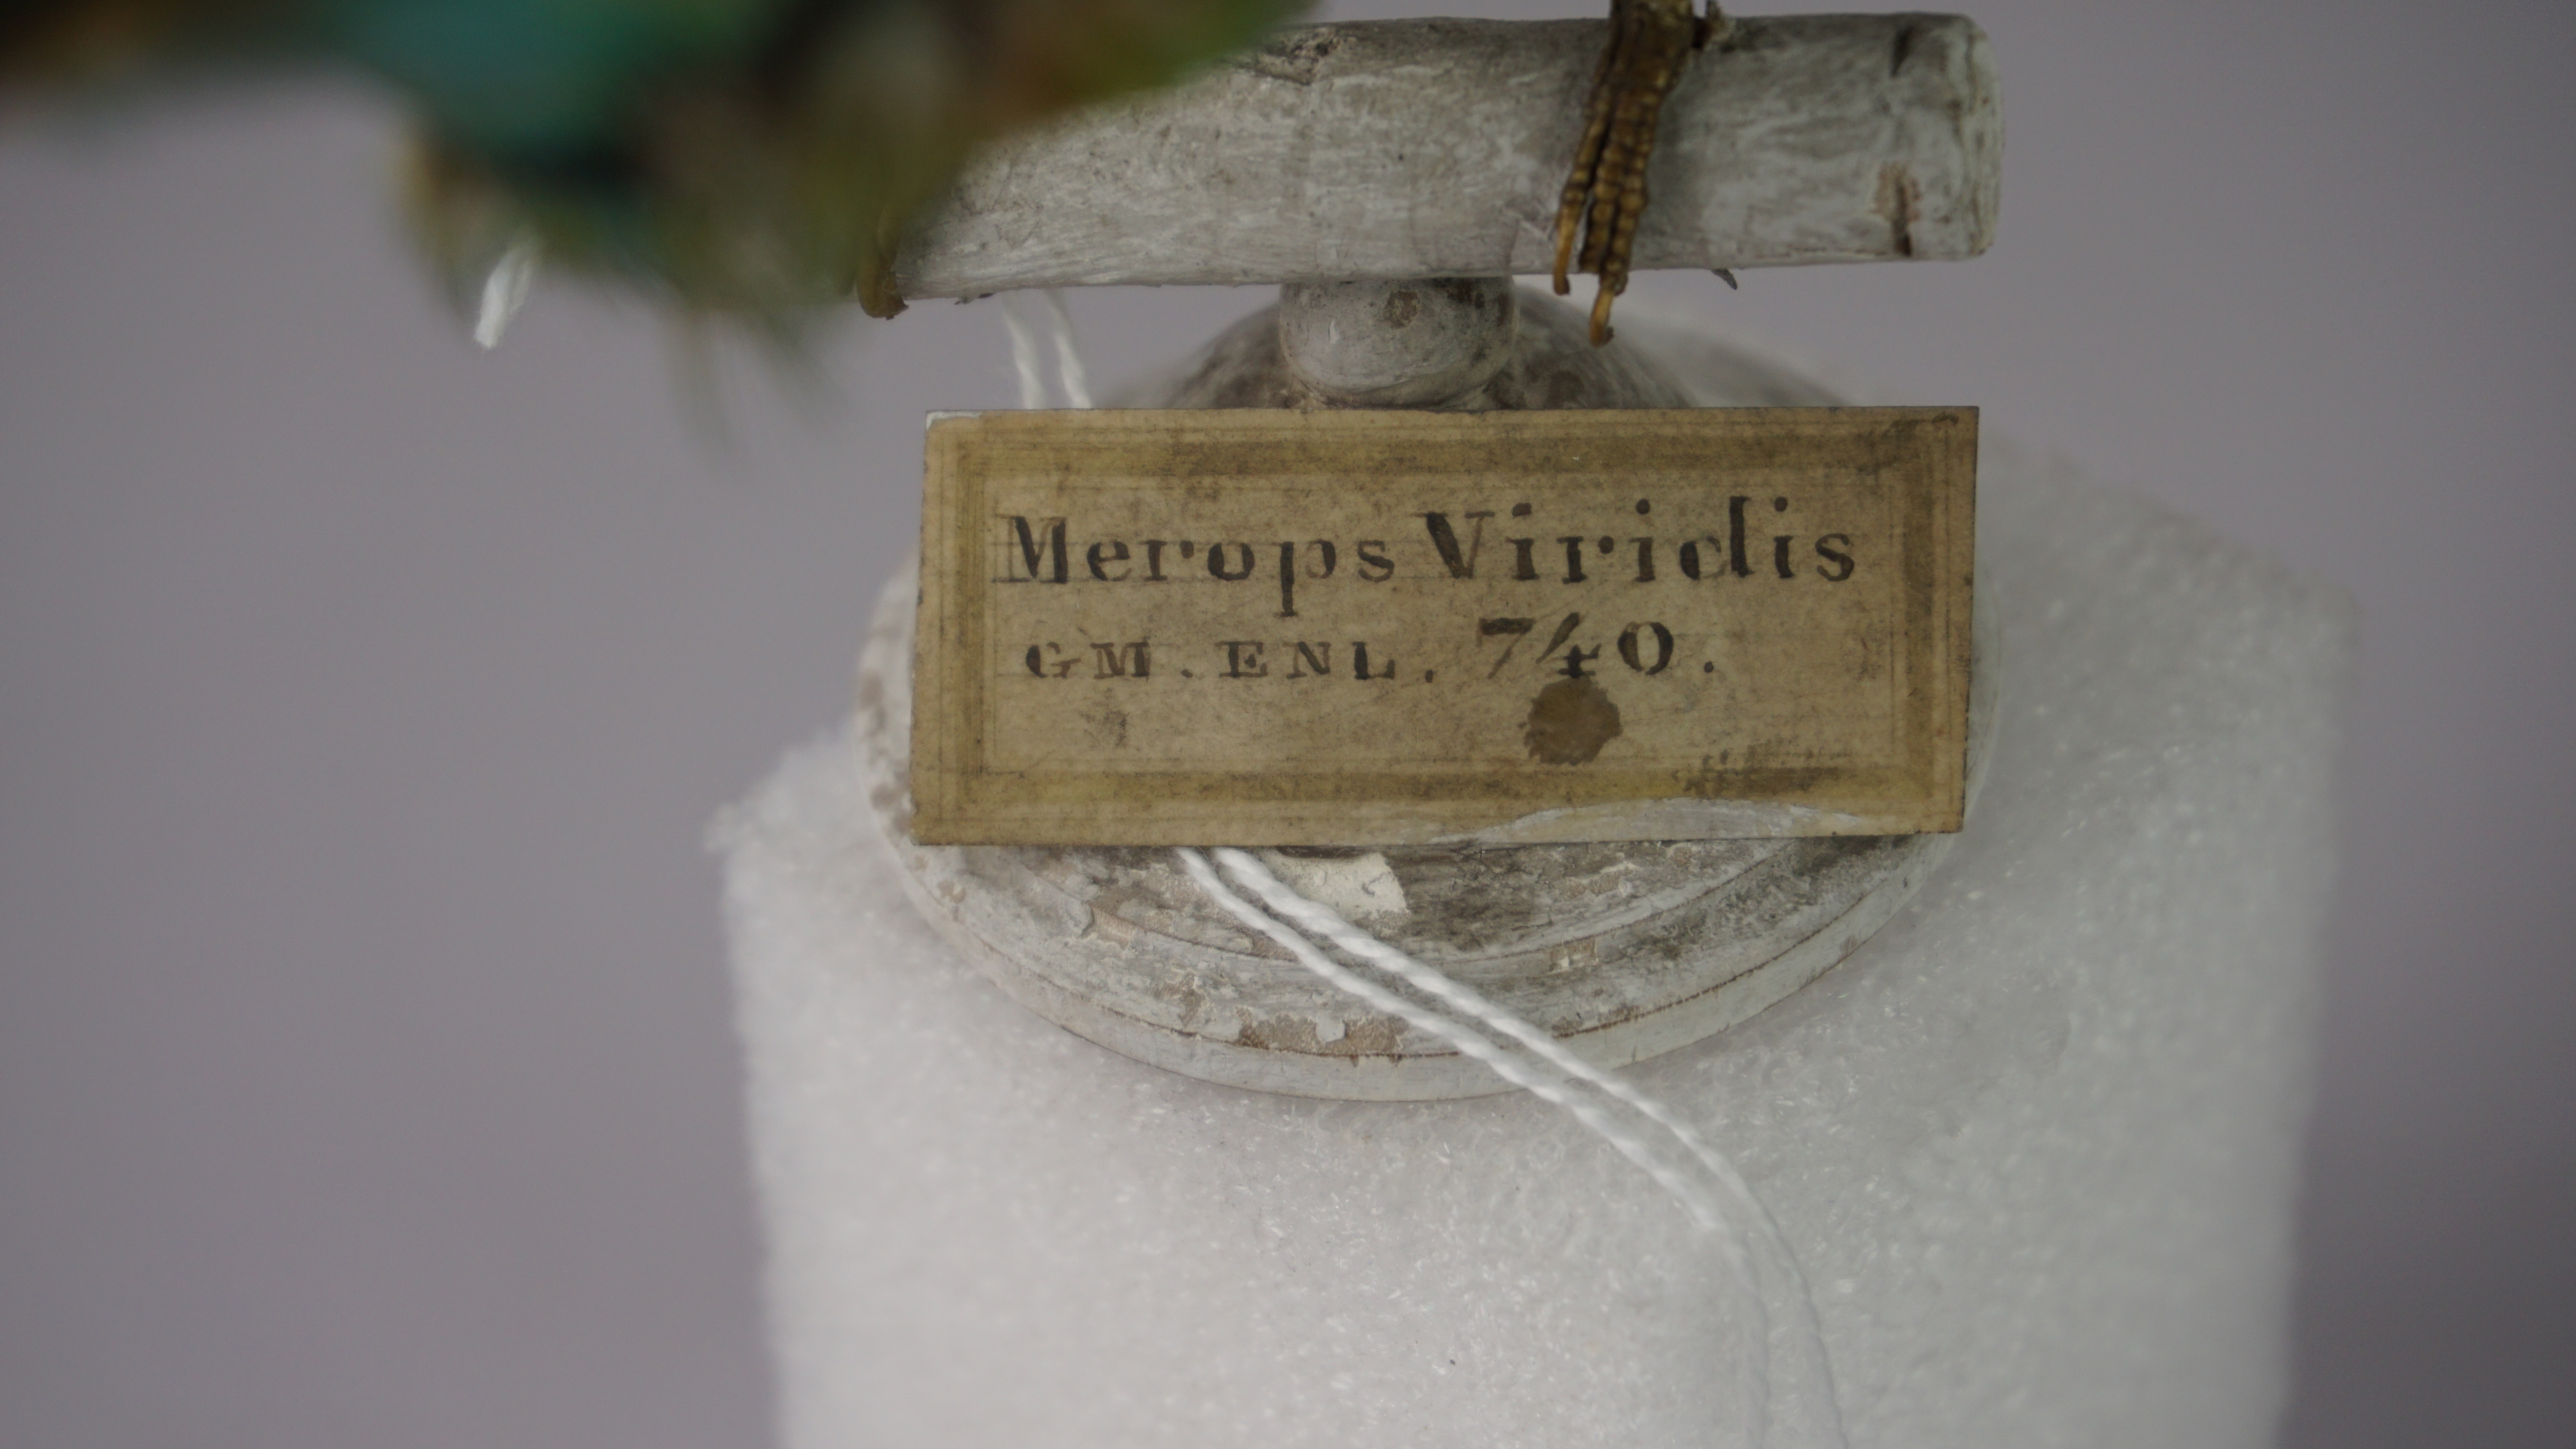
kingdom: Animalia
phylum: Chordata
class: Aves
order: Coraciiformes
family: Meropidae
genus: Merops
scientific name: Merops orientalis
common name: Green bee-eater
